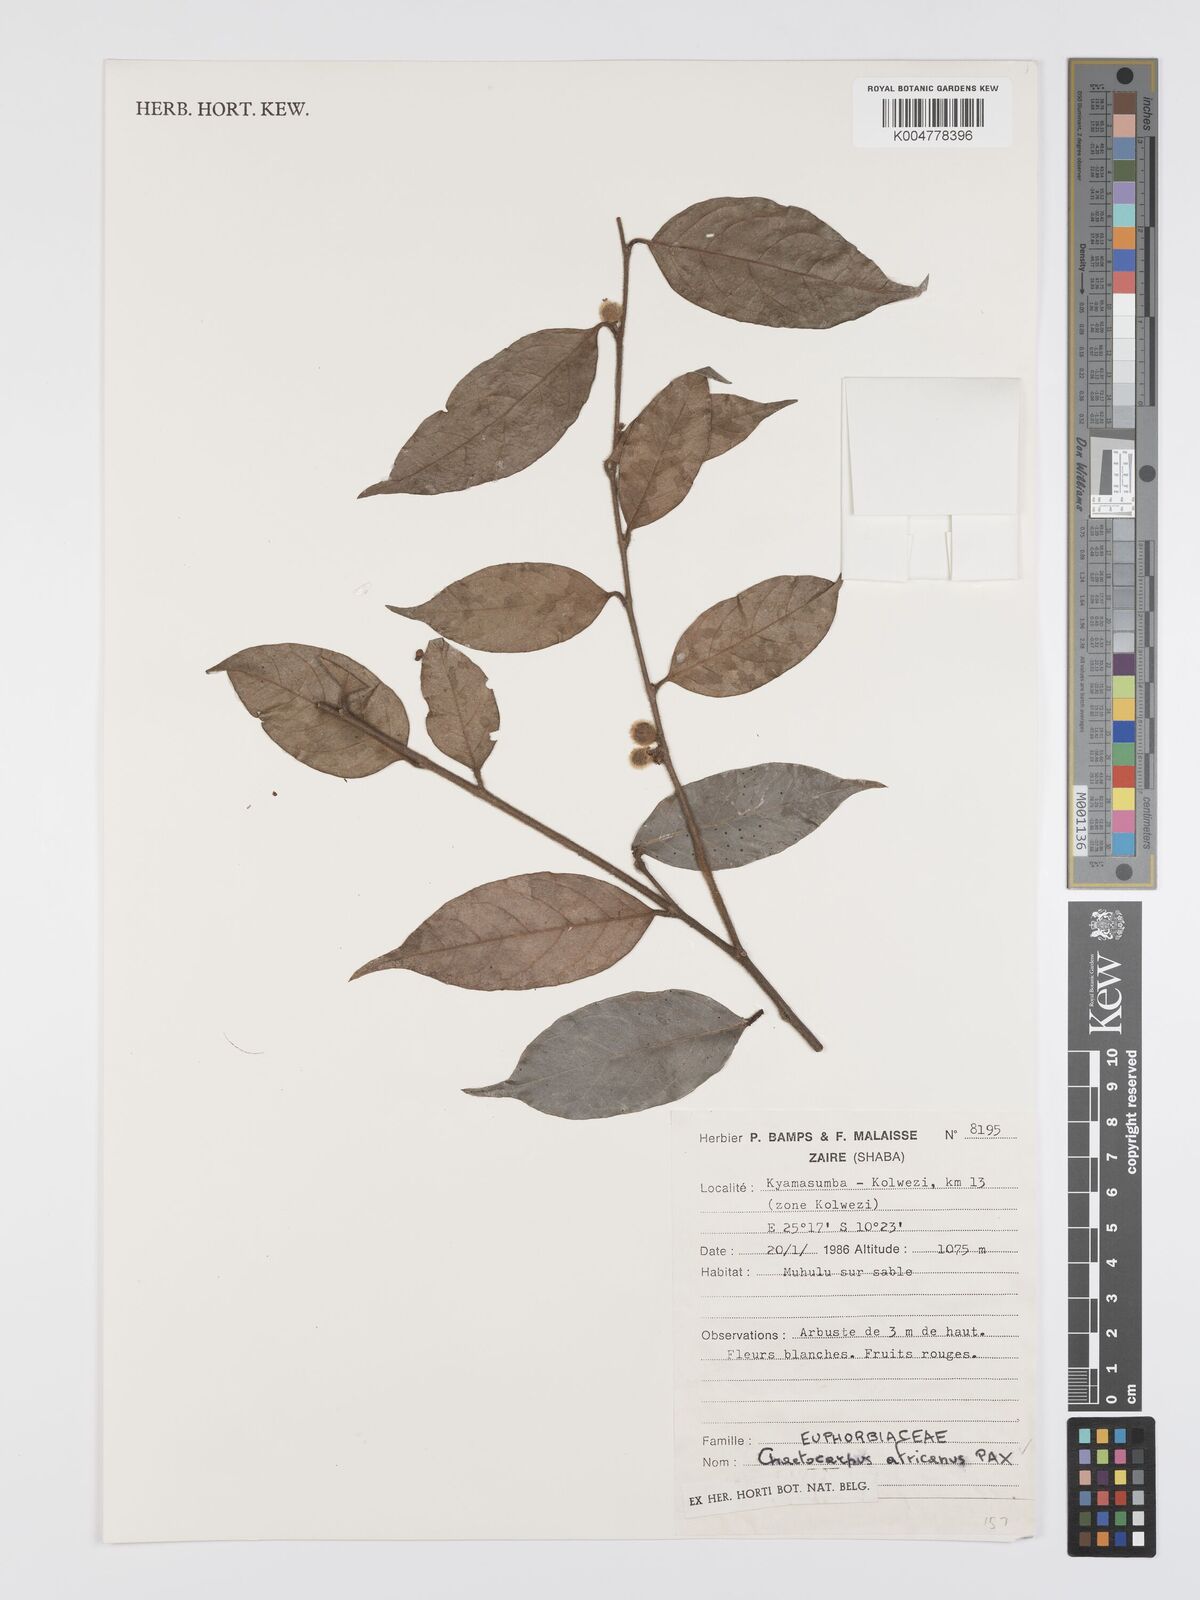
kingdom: Plantae
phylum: Tracheophyta
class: Magnoliopsida
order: Malpighiales
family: Peraceae
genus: Chaetocarpus
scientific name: Chaetocarpus africanus
